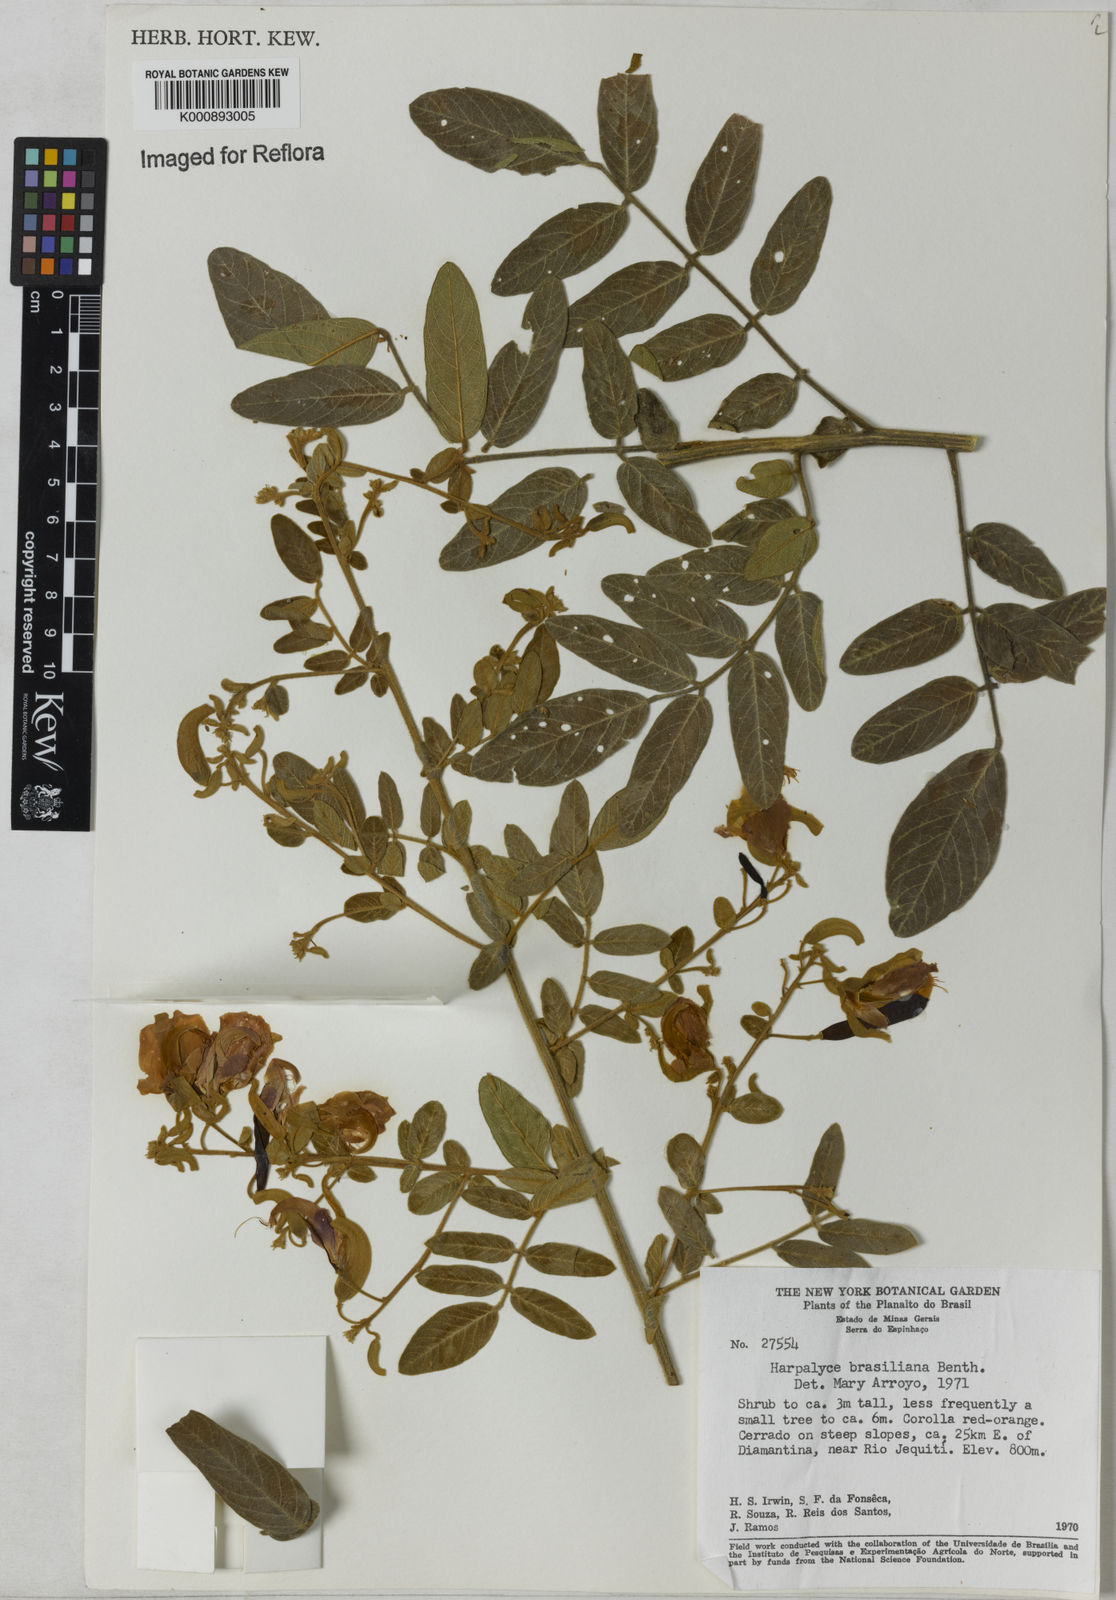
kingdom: Plantae
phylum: Tracheophyta
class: Magnoliopsida
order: Fabales
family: Fabaceae
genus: Harpalyce
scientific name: Harpalyce
